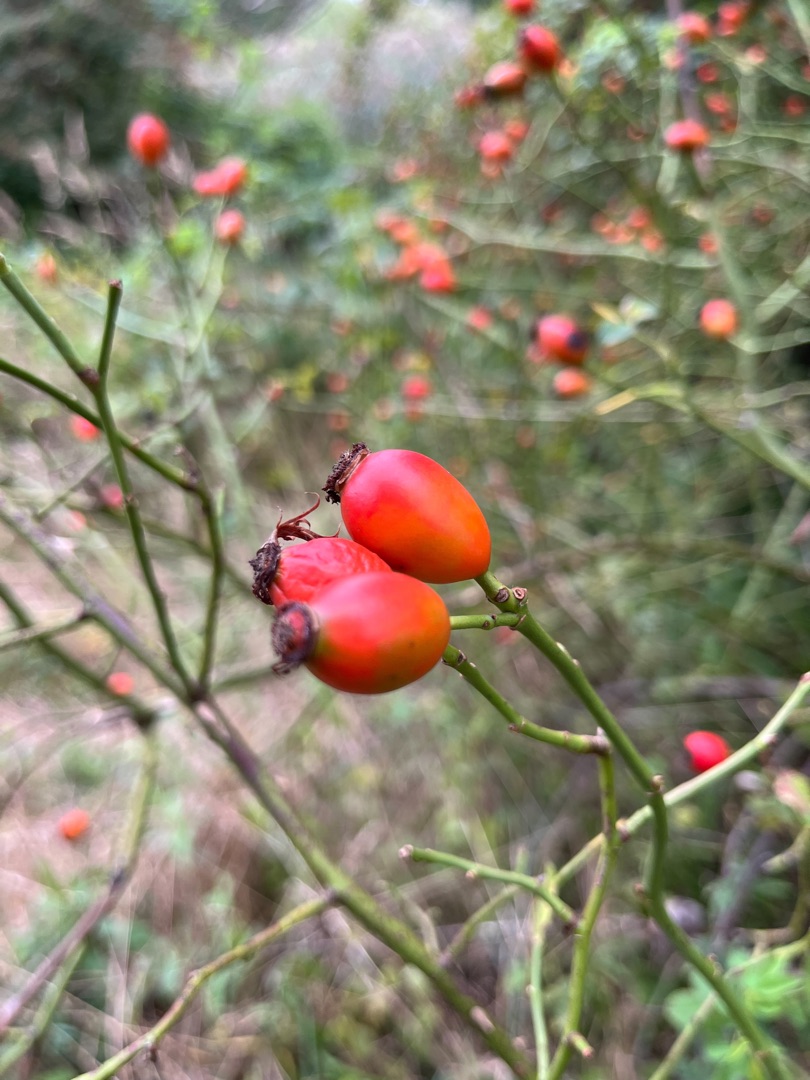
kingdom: Plantae
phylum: Tracheophyta
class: Magnoliopsida
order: Rosales
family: Rosaceae
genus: Rosa
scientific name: Rosa canina
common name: Hunde-rose
